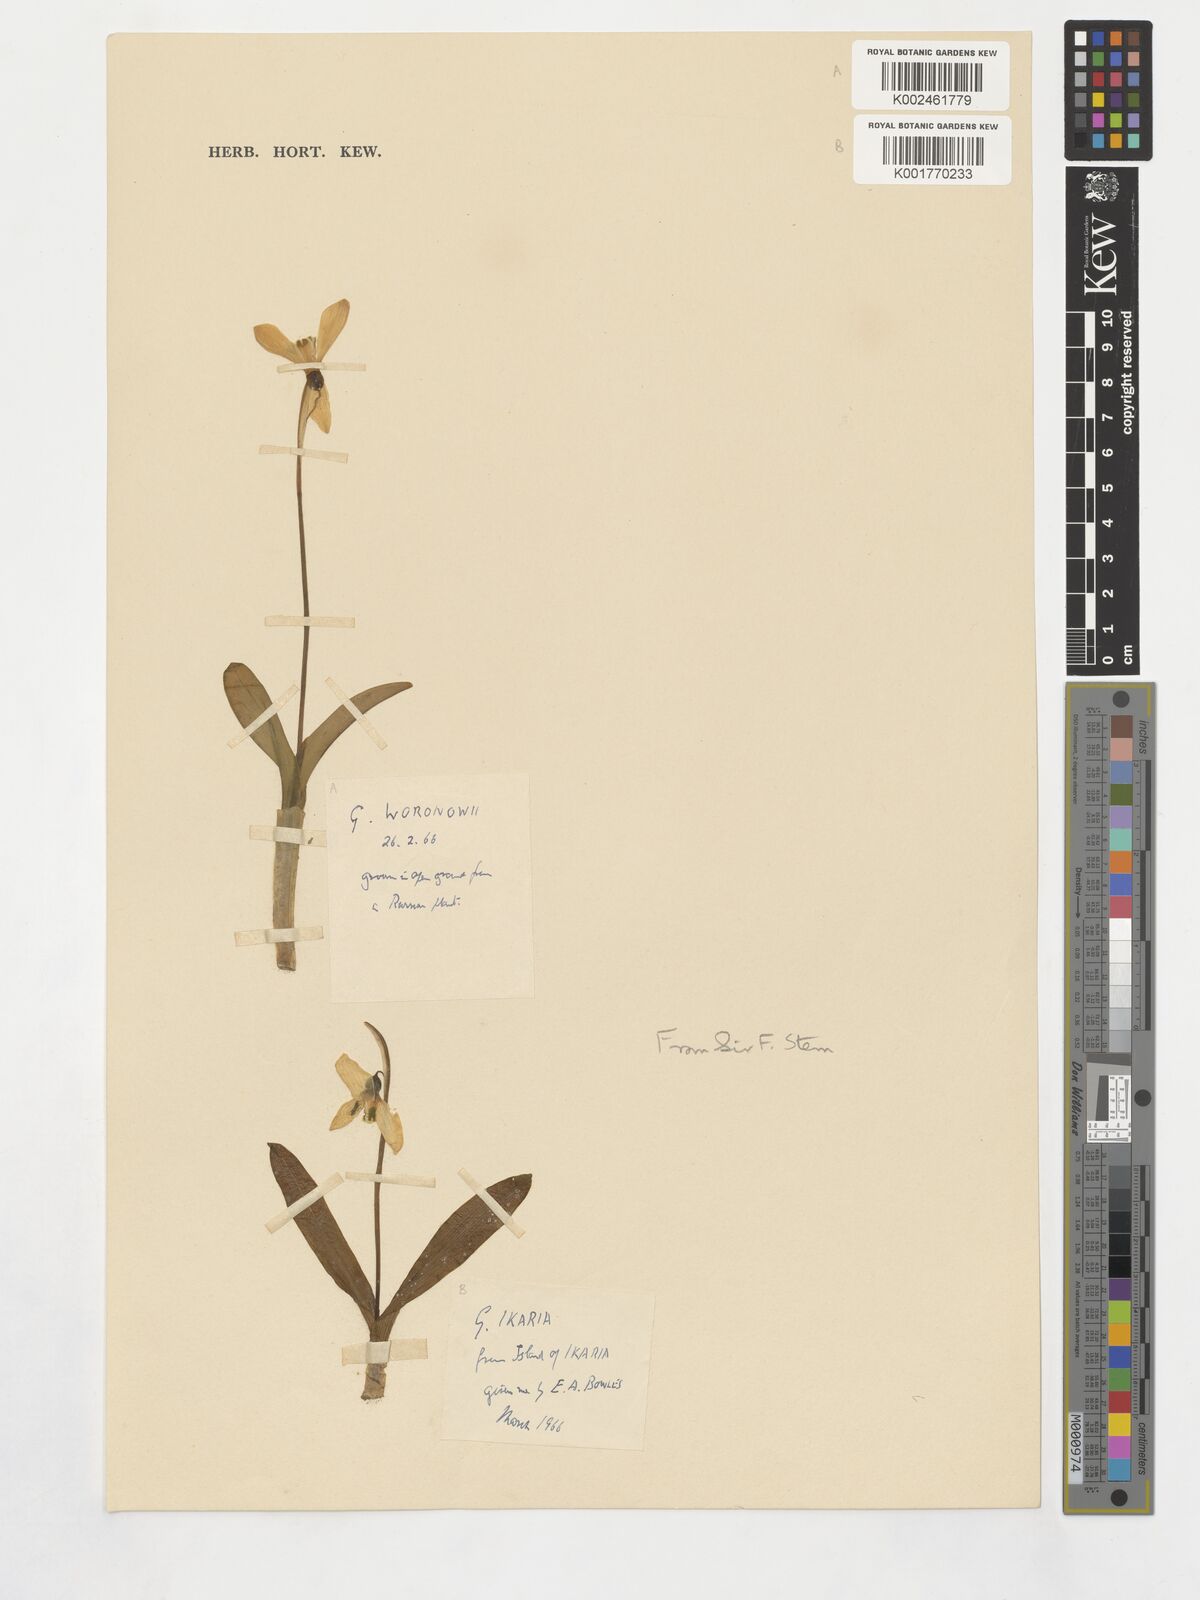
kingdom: Plantae
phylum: Tracheophyta
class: Liliopsida
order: Asparagales
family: Amaryllidaceae
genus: Galanthus
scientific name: Galanthus woronowii
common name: Green snowdrop
